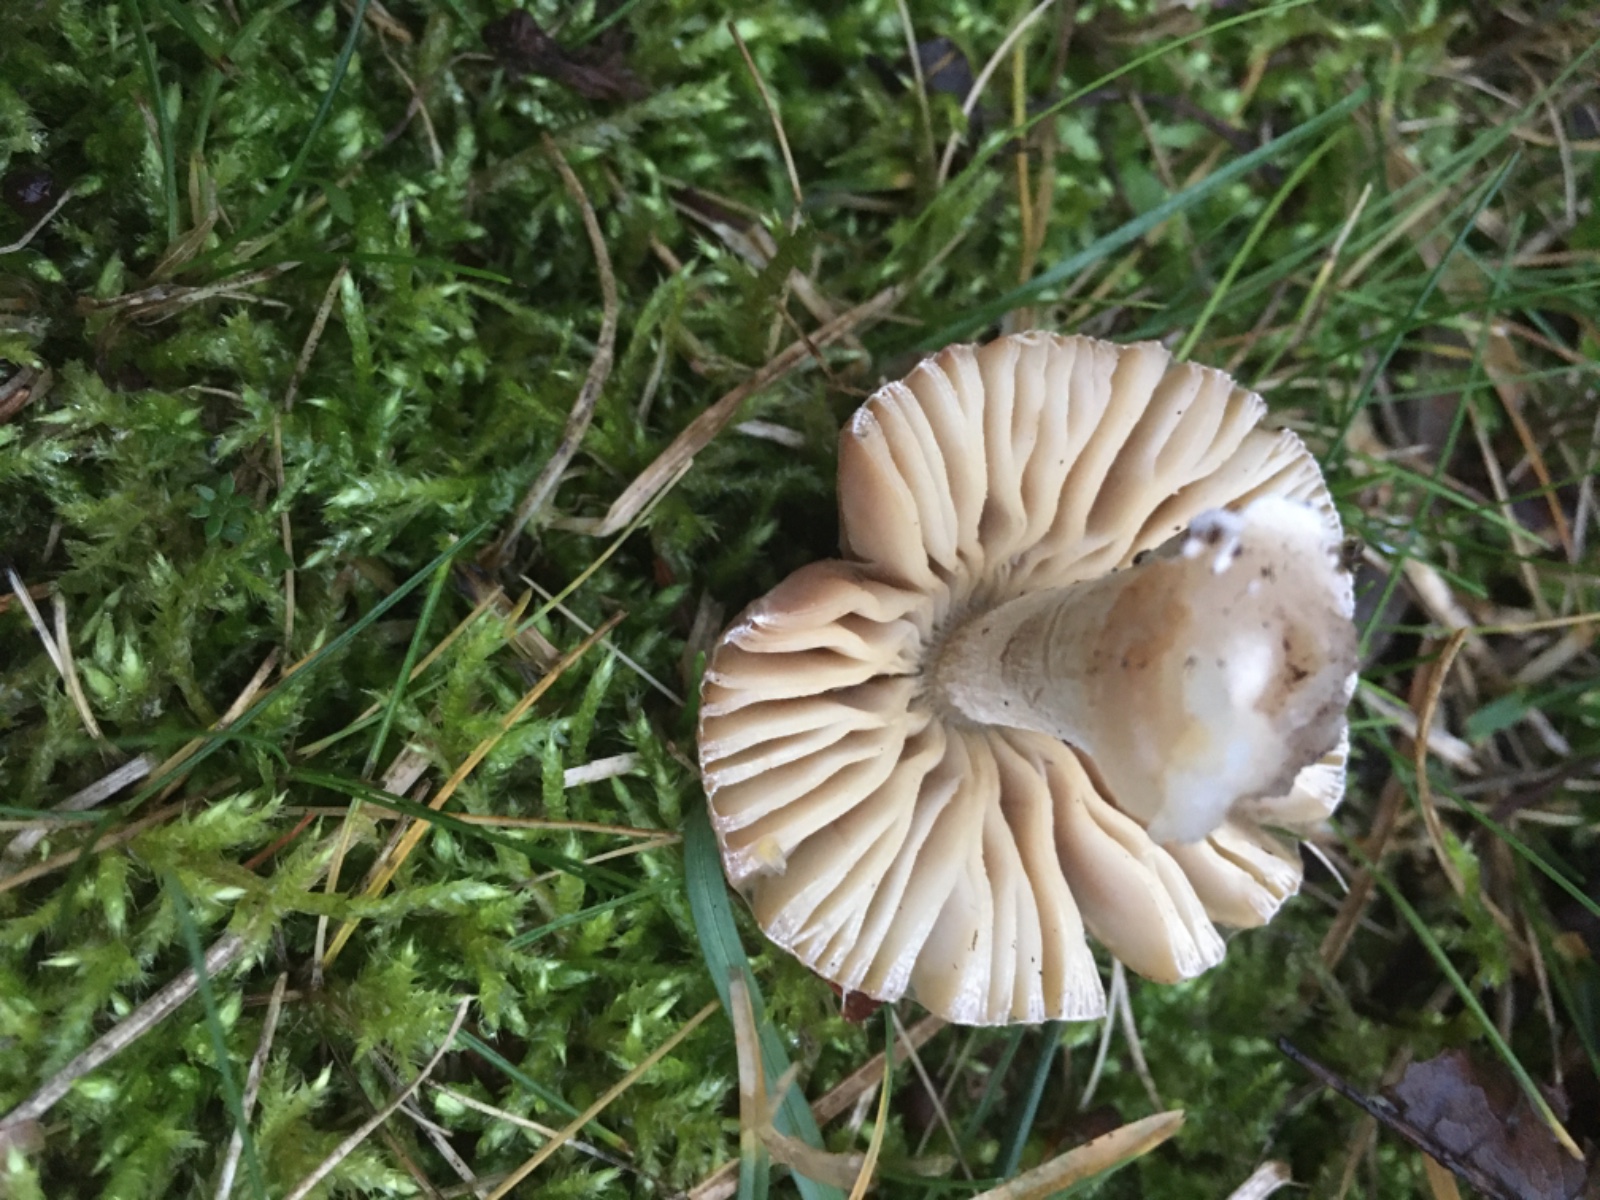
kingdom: Fungi
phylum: Basidiomycota
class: Agaricomycetes
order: Agaricales
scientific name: Agaricales
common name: champignonordenen
